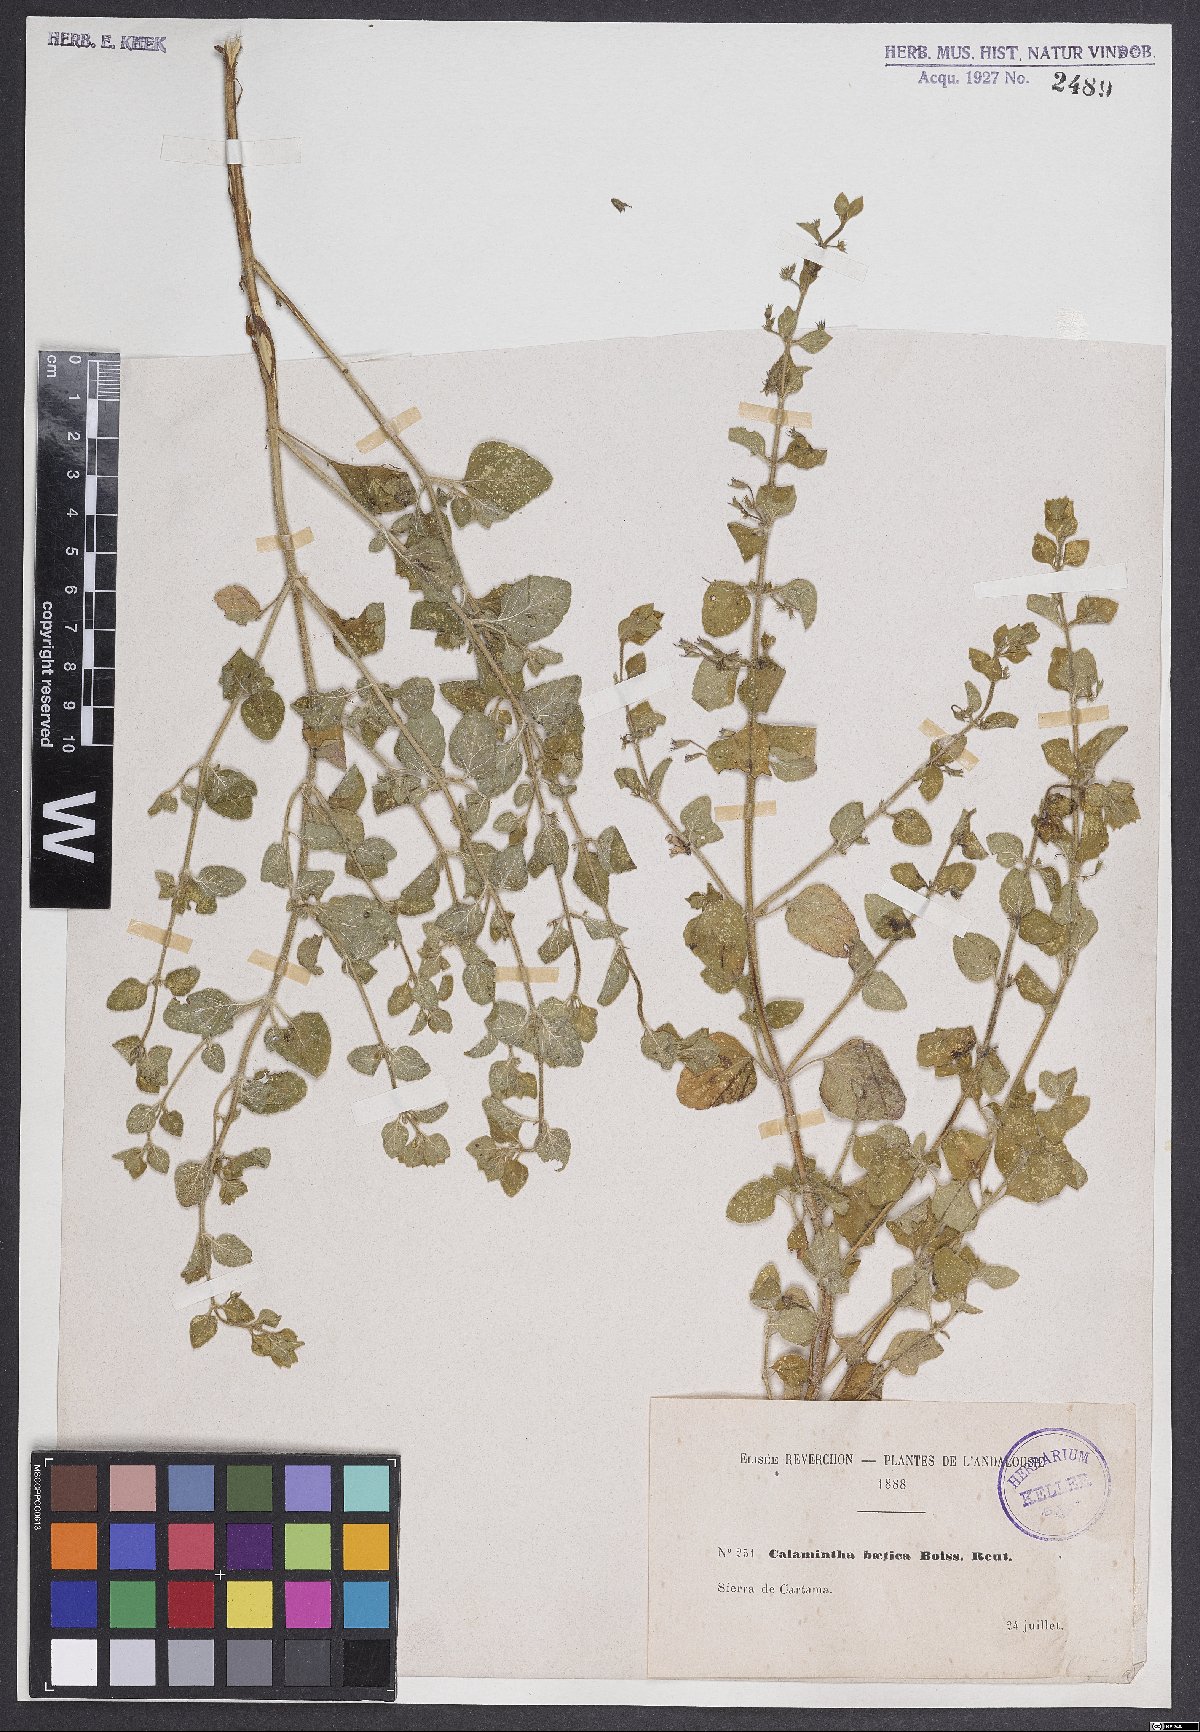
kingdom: Plantae
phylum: Tracheophyta
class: Magnoliopsida
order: Lamiales
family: Lamiaceae
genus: Calamintha
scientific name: Calamintha
